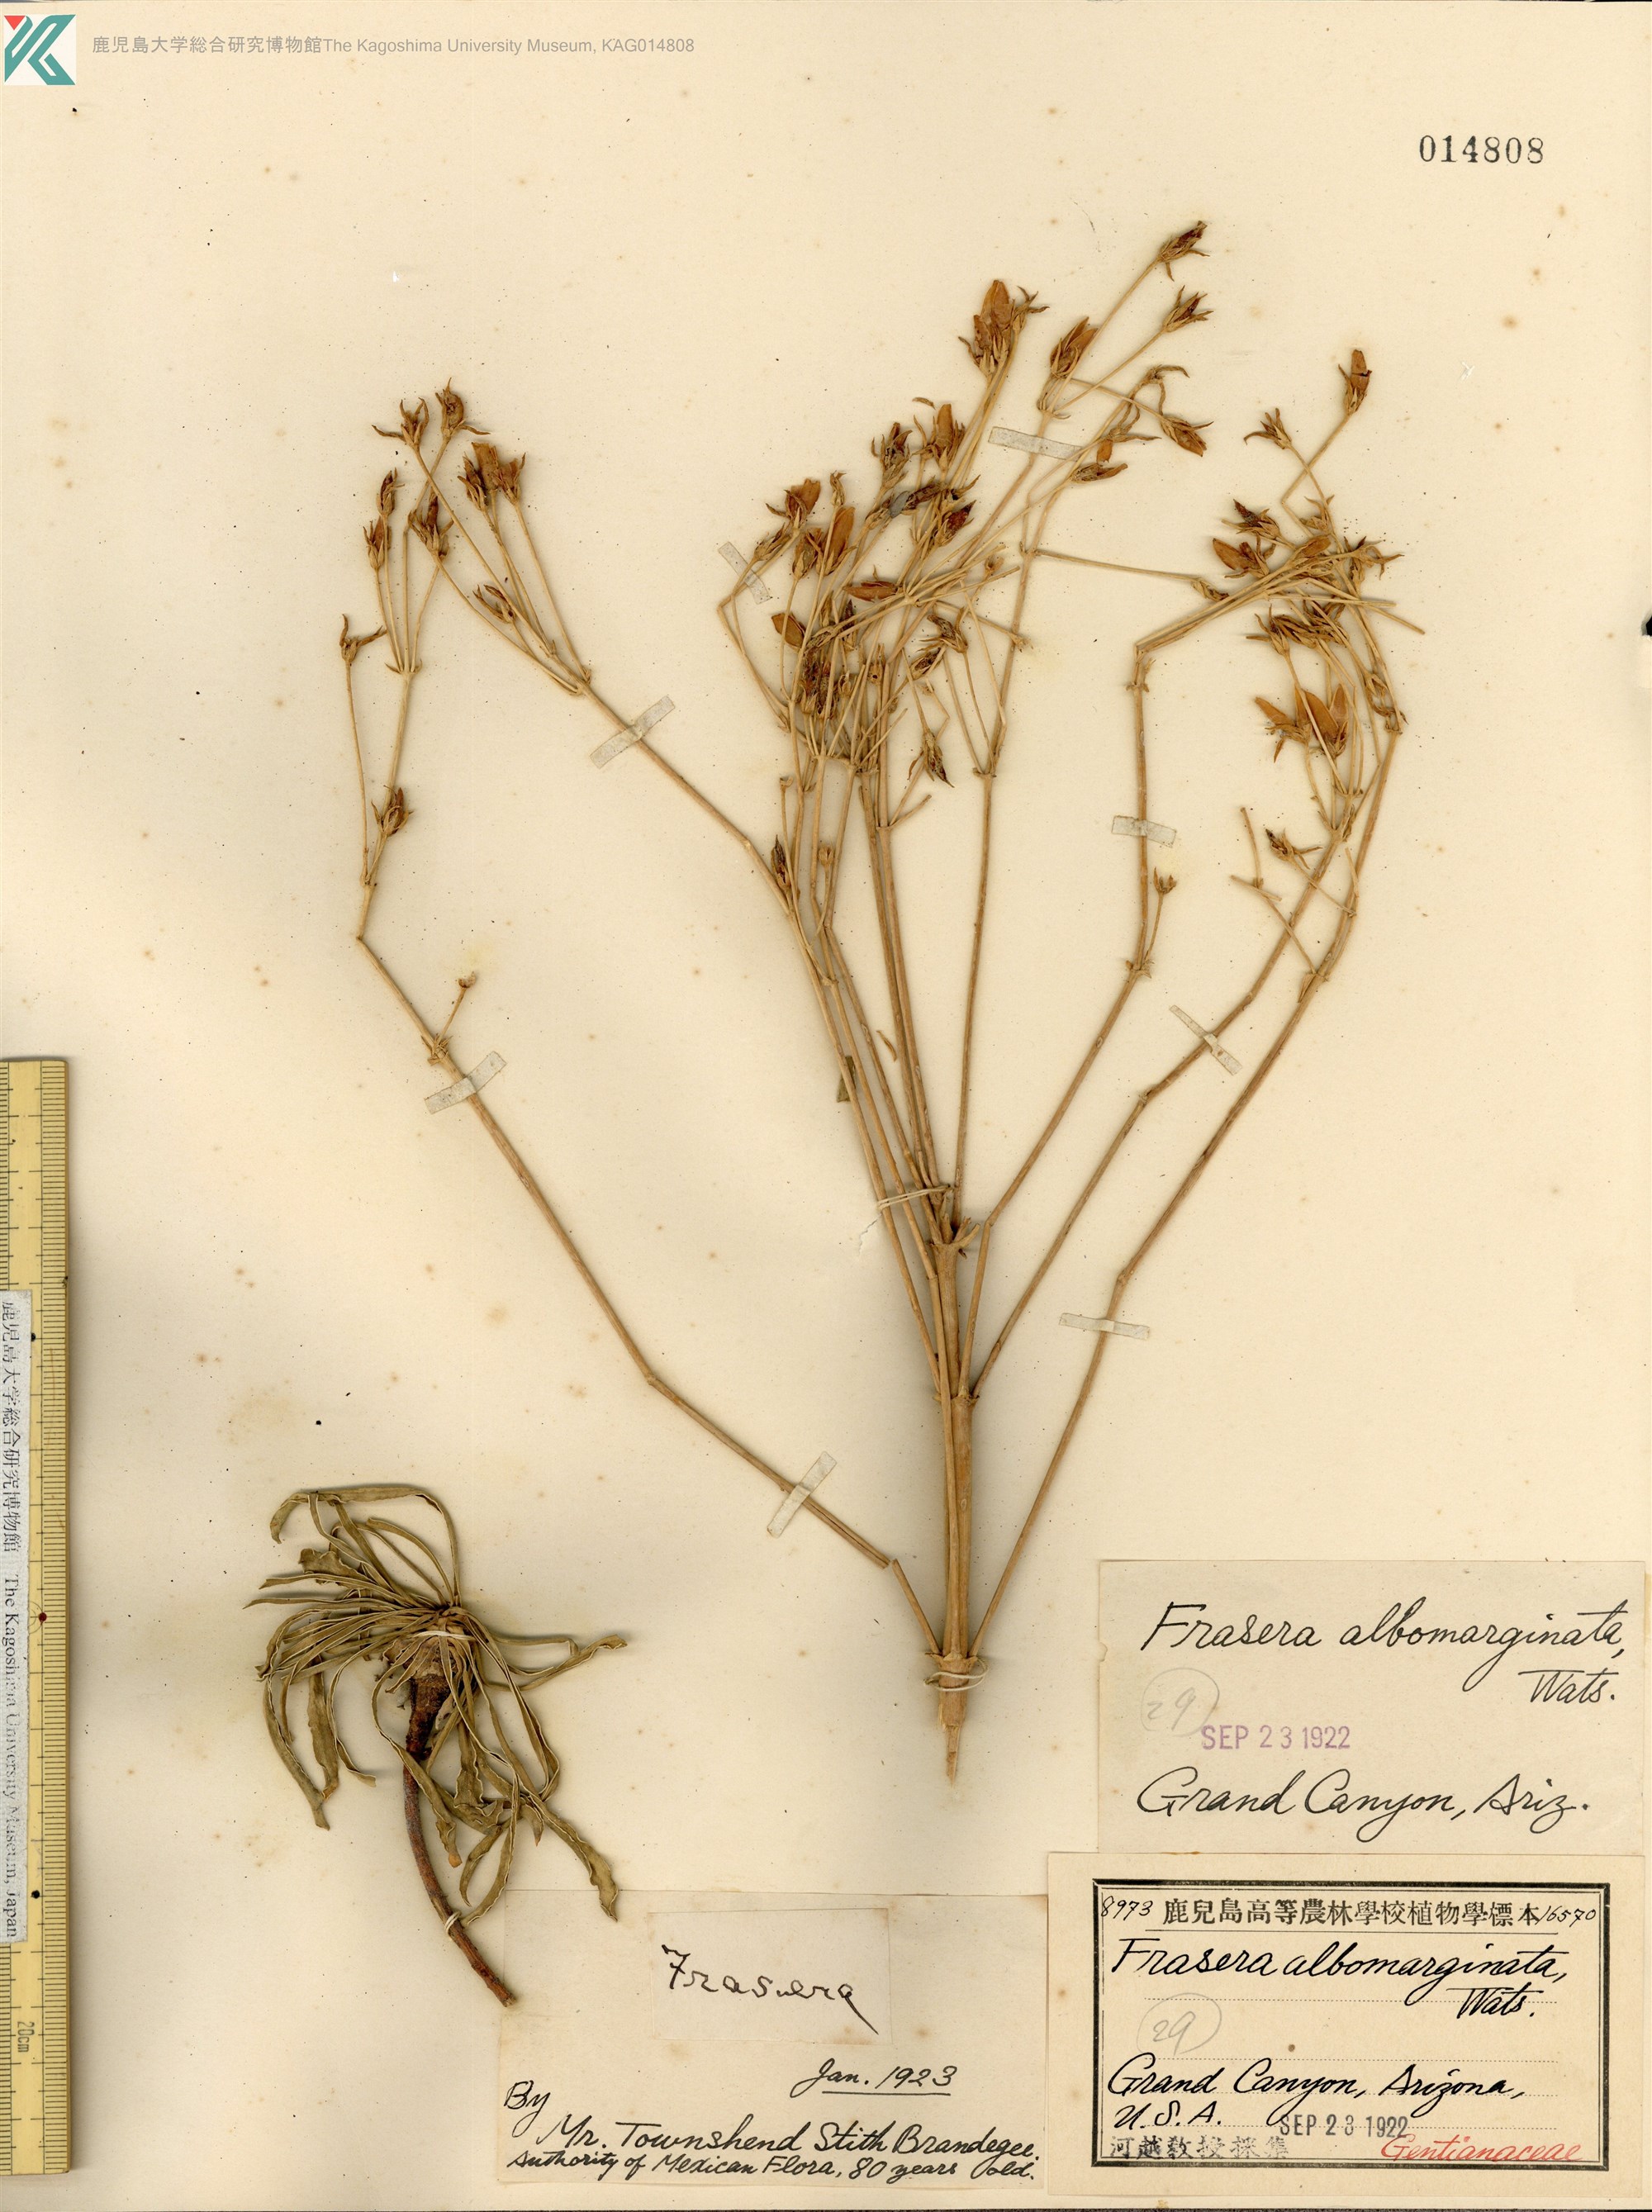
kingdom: Plantae
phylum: Tracheophyta
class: Magnoliopsida
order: Gentianales
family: Gentianaceae
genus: Frasera
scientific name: Frasera albomarginata
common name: Desert frasera
